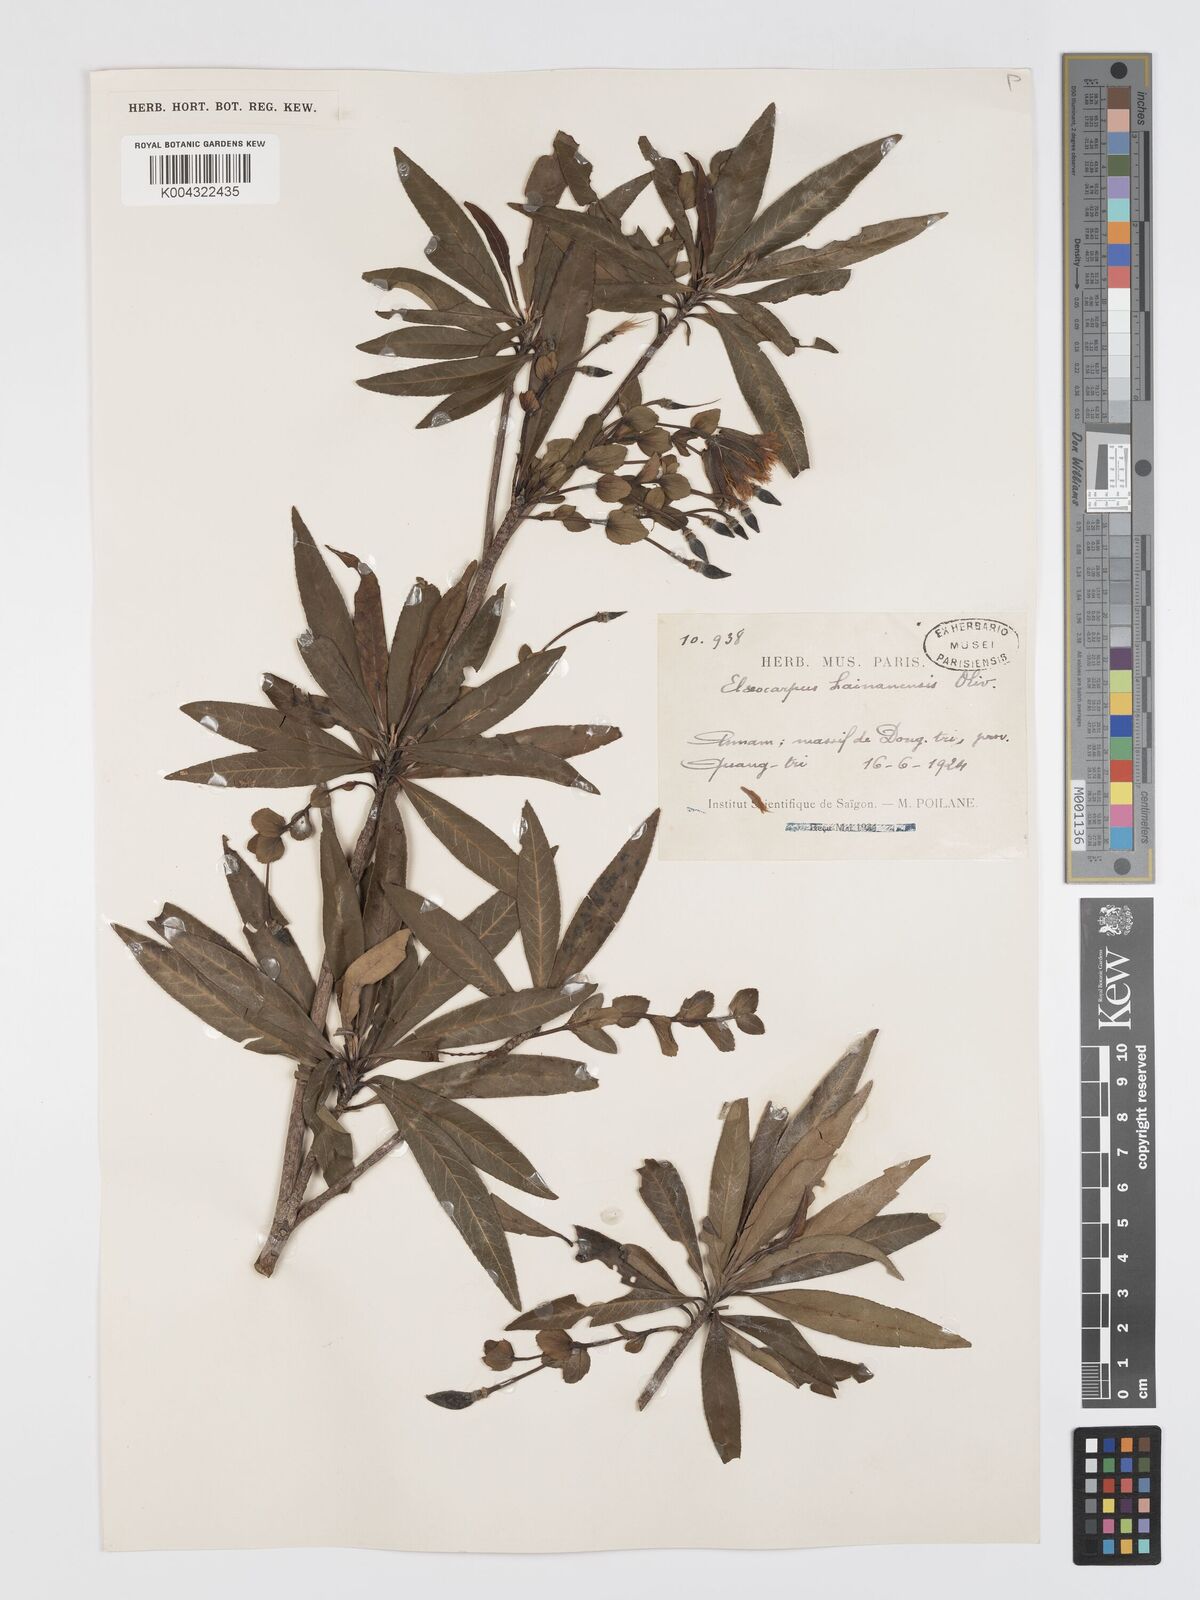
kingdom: Plantae
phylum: Tracheophyta
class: Magnoliopsida
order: Oxalidales
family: Elaeocarpaceae
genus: Elaeocarpus
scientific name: Elaeocarpus hainanensis
